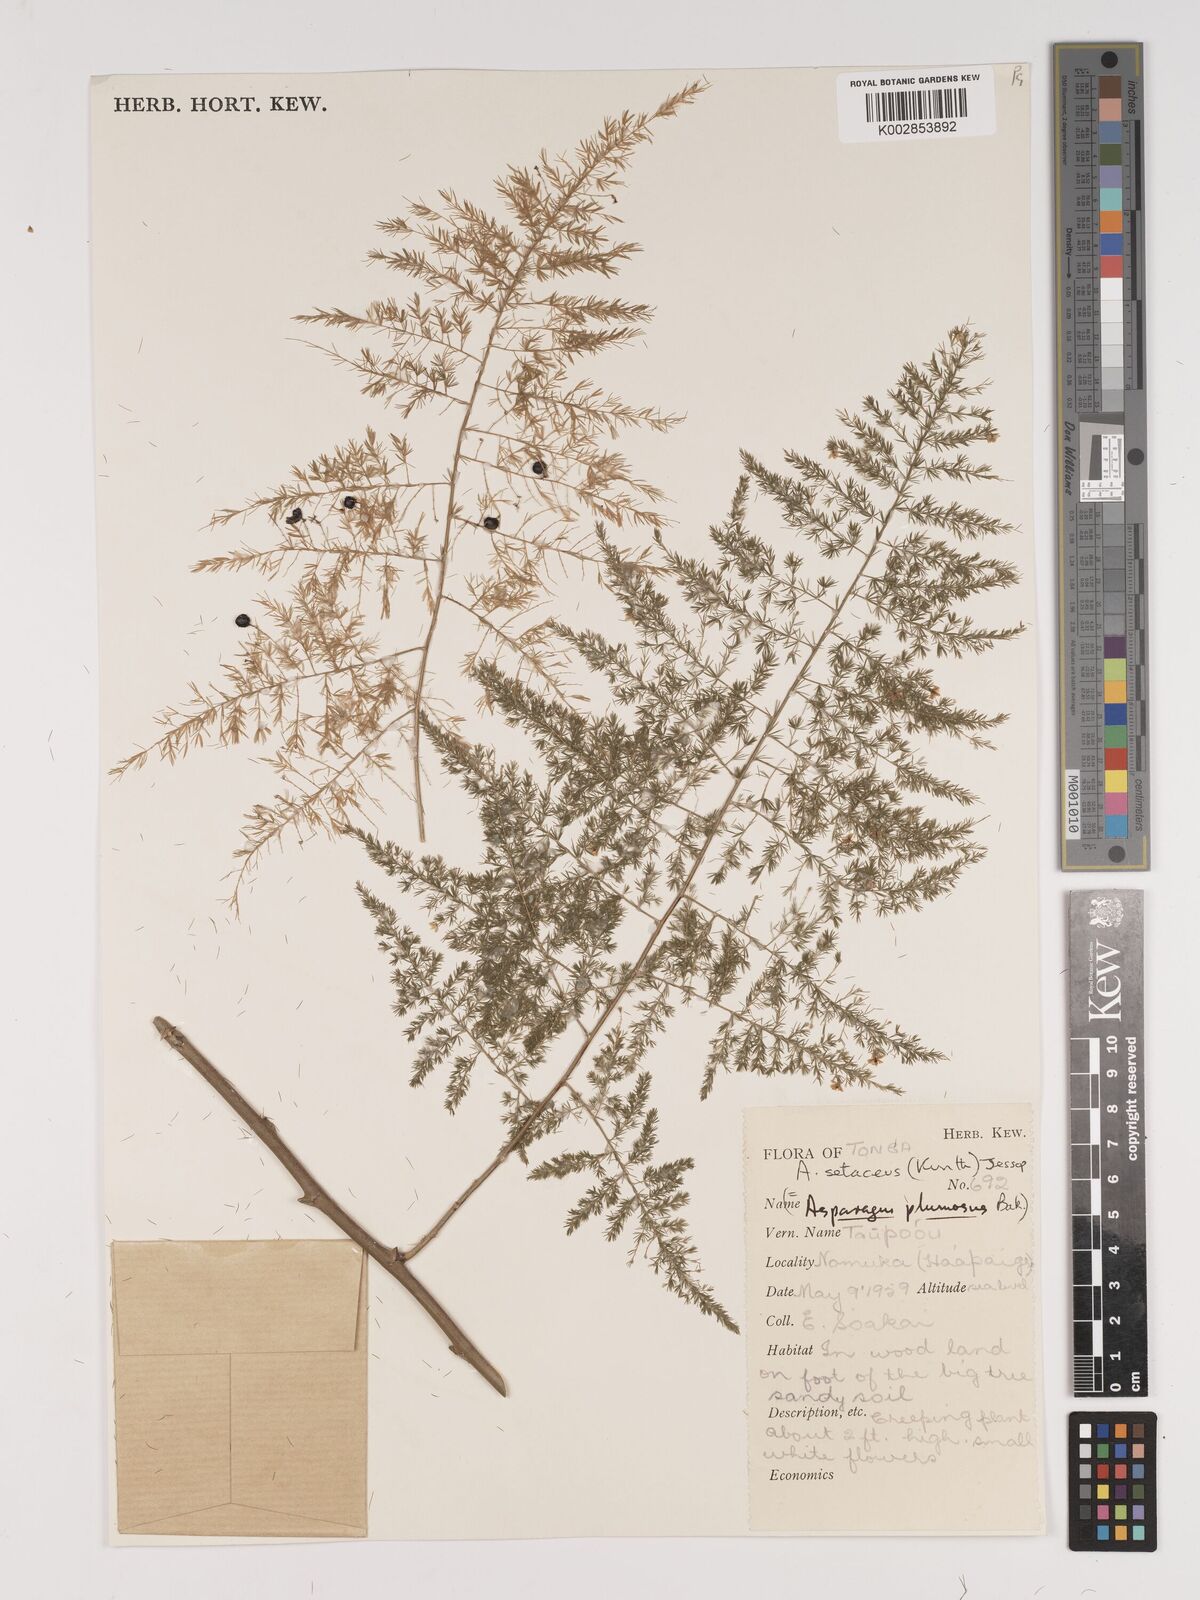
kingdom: Plantae
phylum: Tracheophyta
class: Liliopsida
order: Asparagales
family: Asparagaceae
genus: Asparagus
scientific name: Asparagus setaceus
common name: Common asparagus fern
